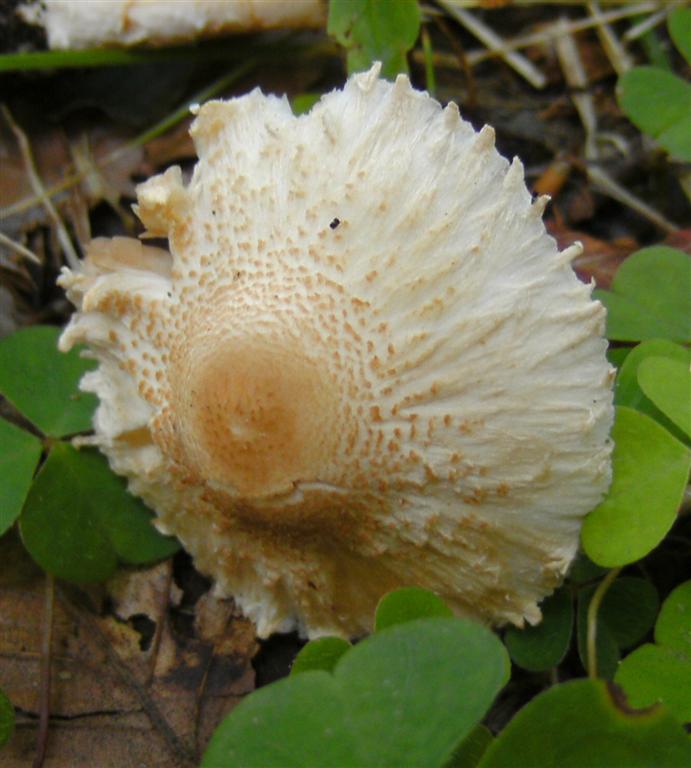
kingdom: Fungi
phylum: Basidiomycota
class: Agaricomycetes
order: Agaricales
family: Agaricaceae
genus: Lepiota
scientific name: Lepiota clypeolaria
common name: flosset parasolhat
